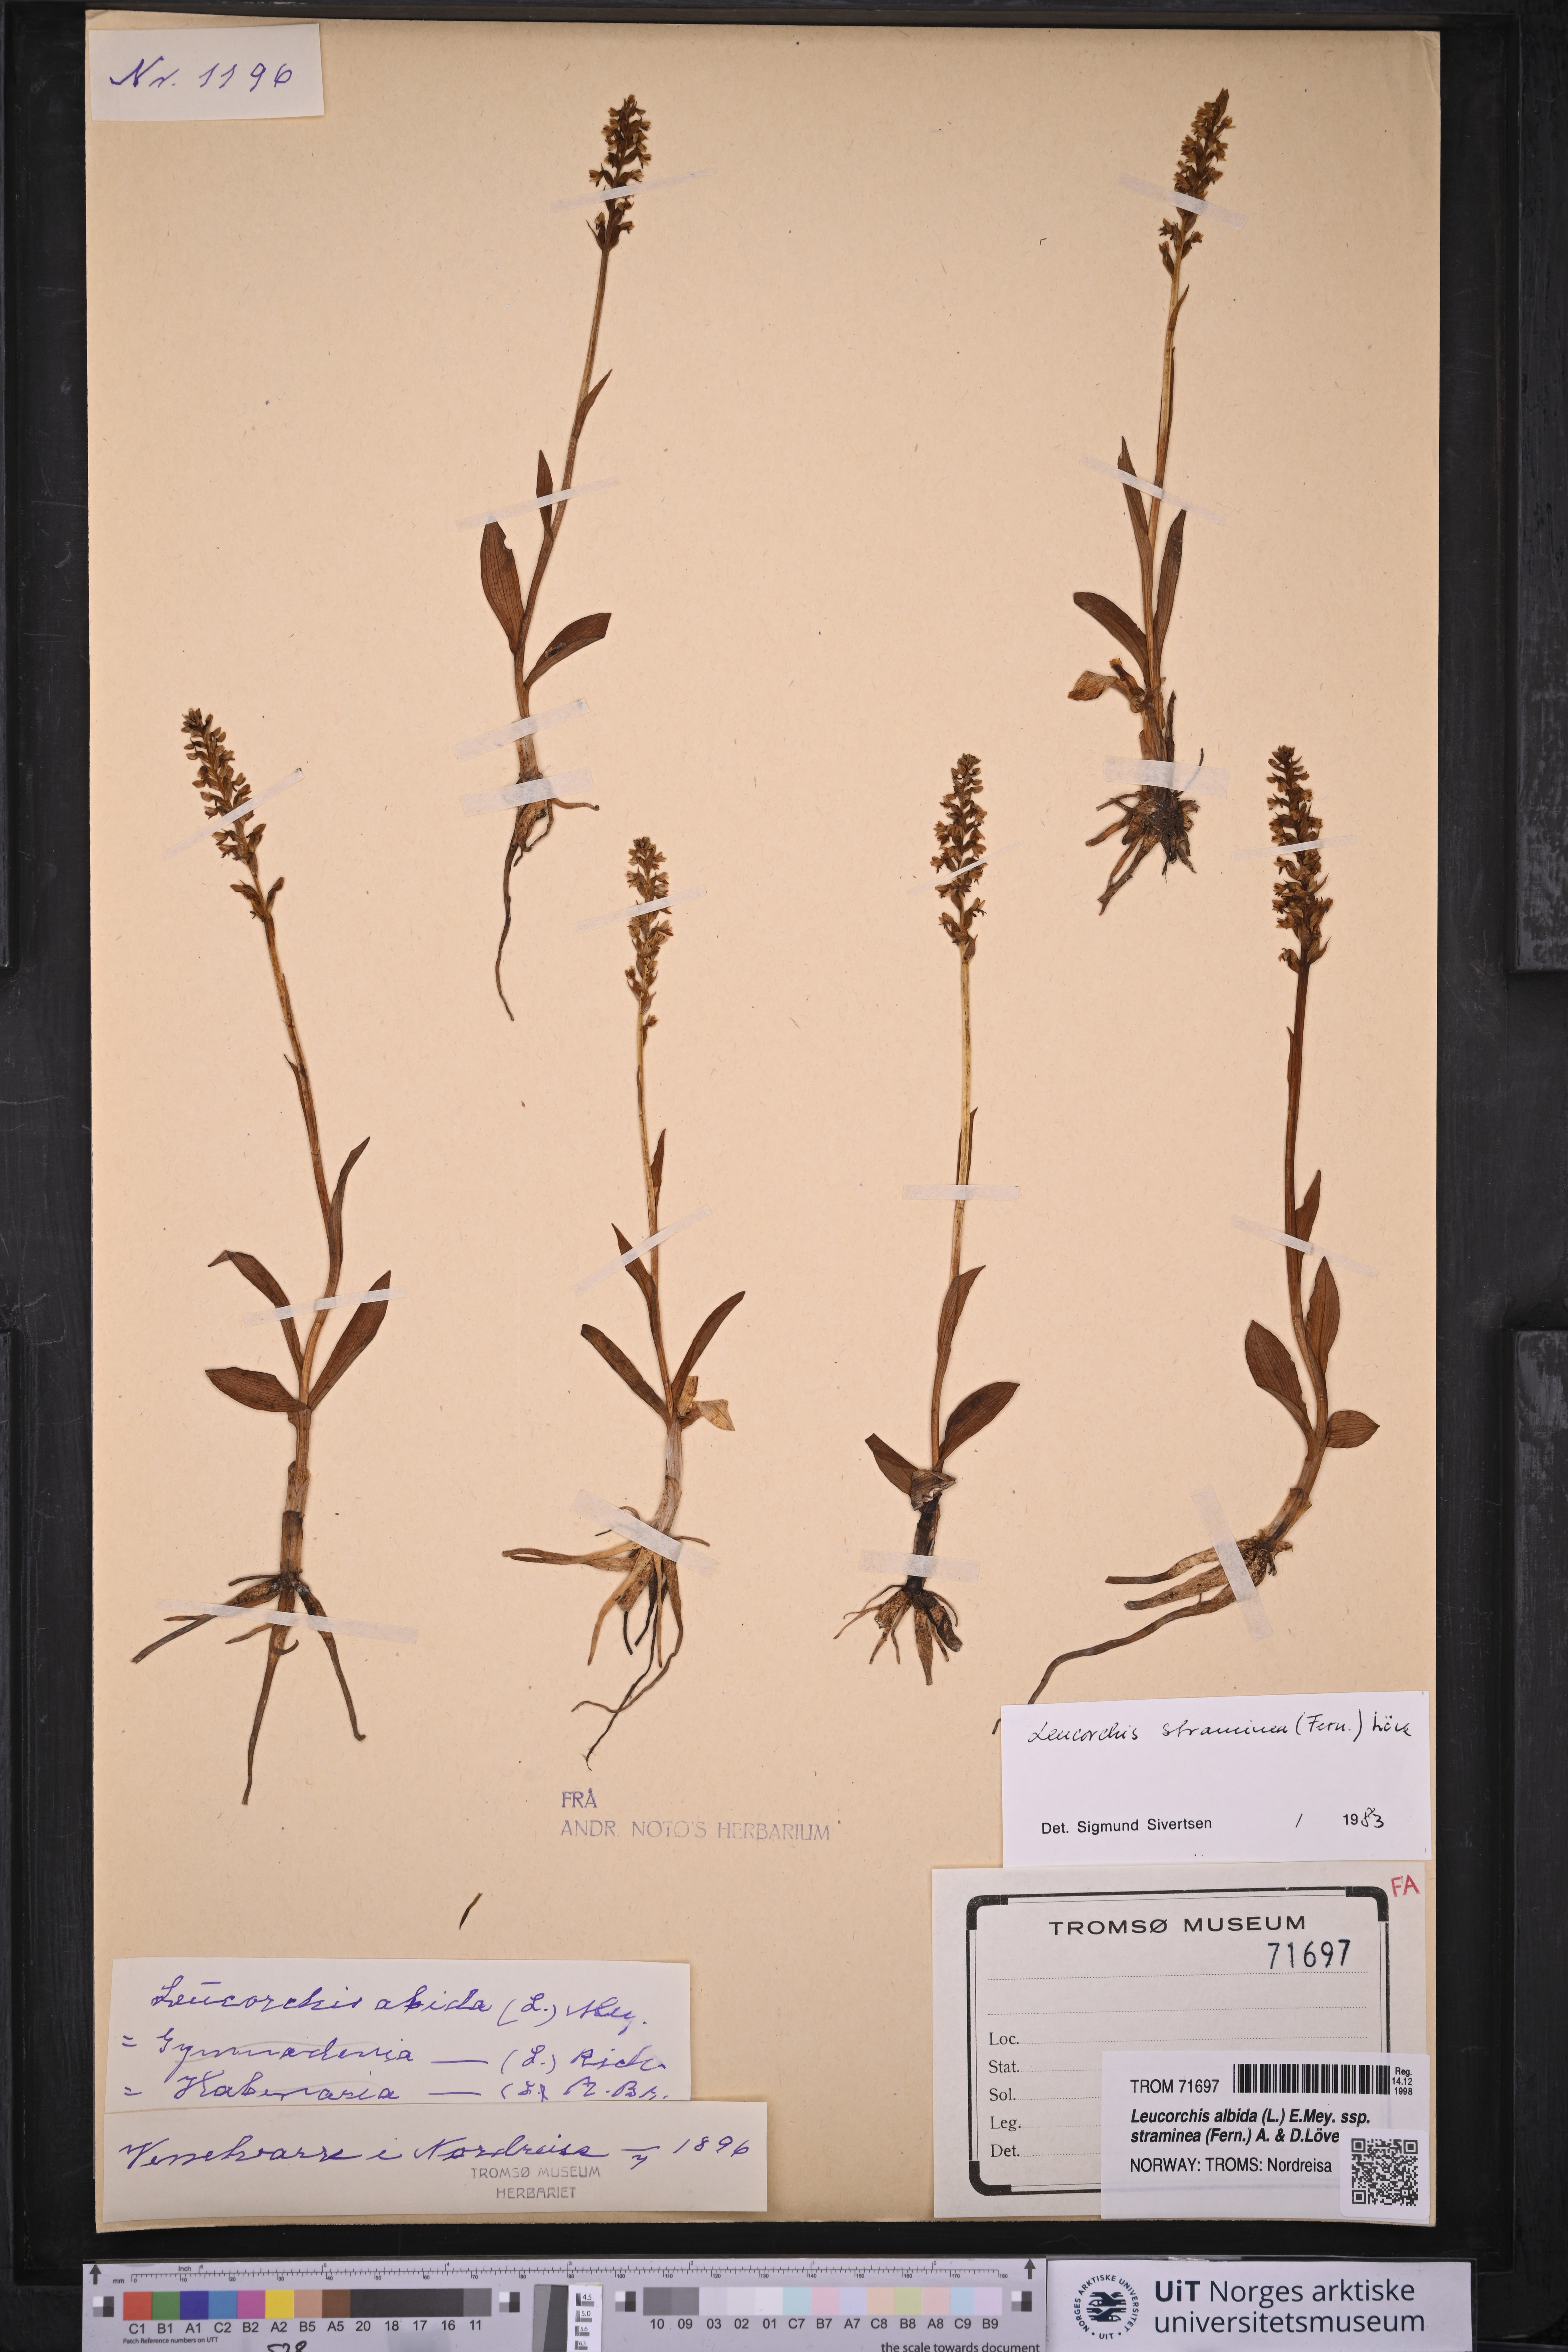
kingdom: Plantae
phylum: Tracheophyta
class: Liliopsida
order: Asparagales
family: Orchidaceae
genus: Pseudorchis
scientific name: Pseudorchis straminea
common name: Vanilla-scented bog orchid
